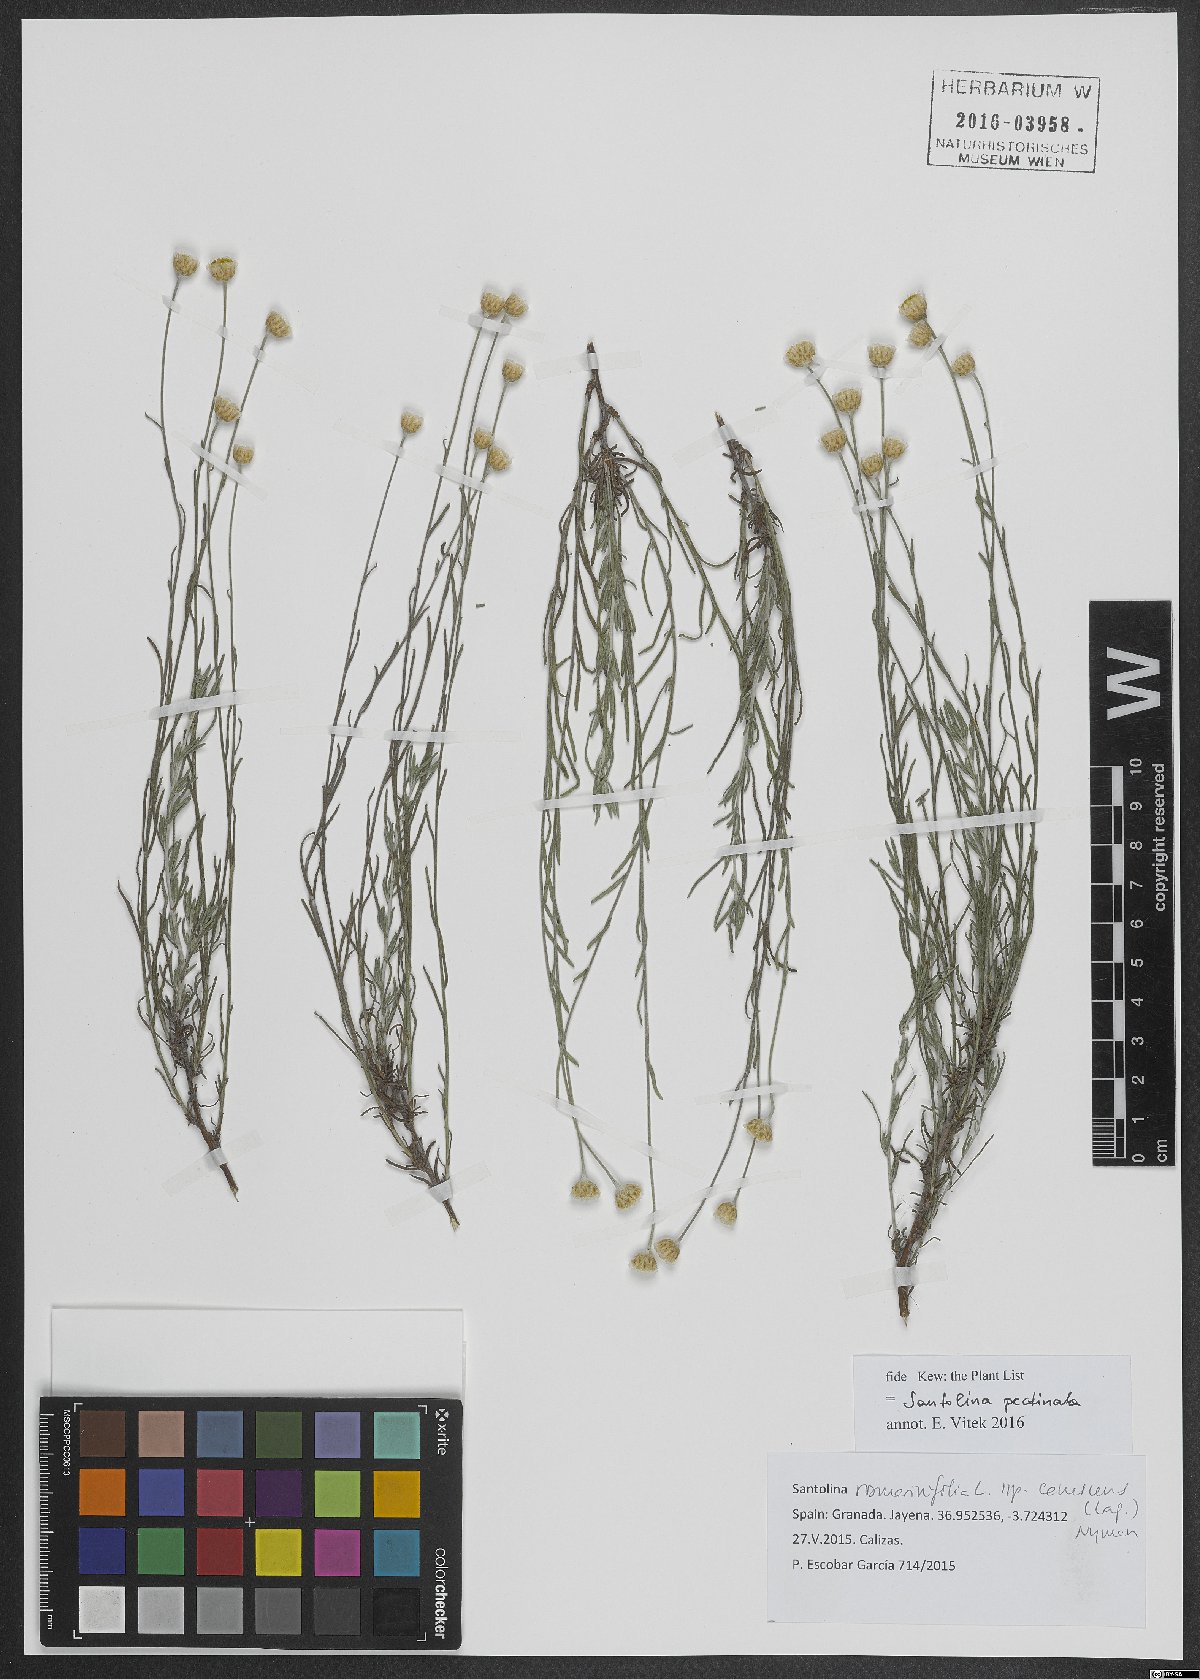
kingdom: Plantae
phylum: Tracheophyta
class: Magnoliopsida
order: Asterales
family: Asteraceae
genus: Santolina
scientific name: Santolina pectinata
